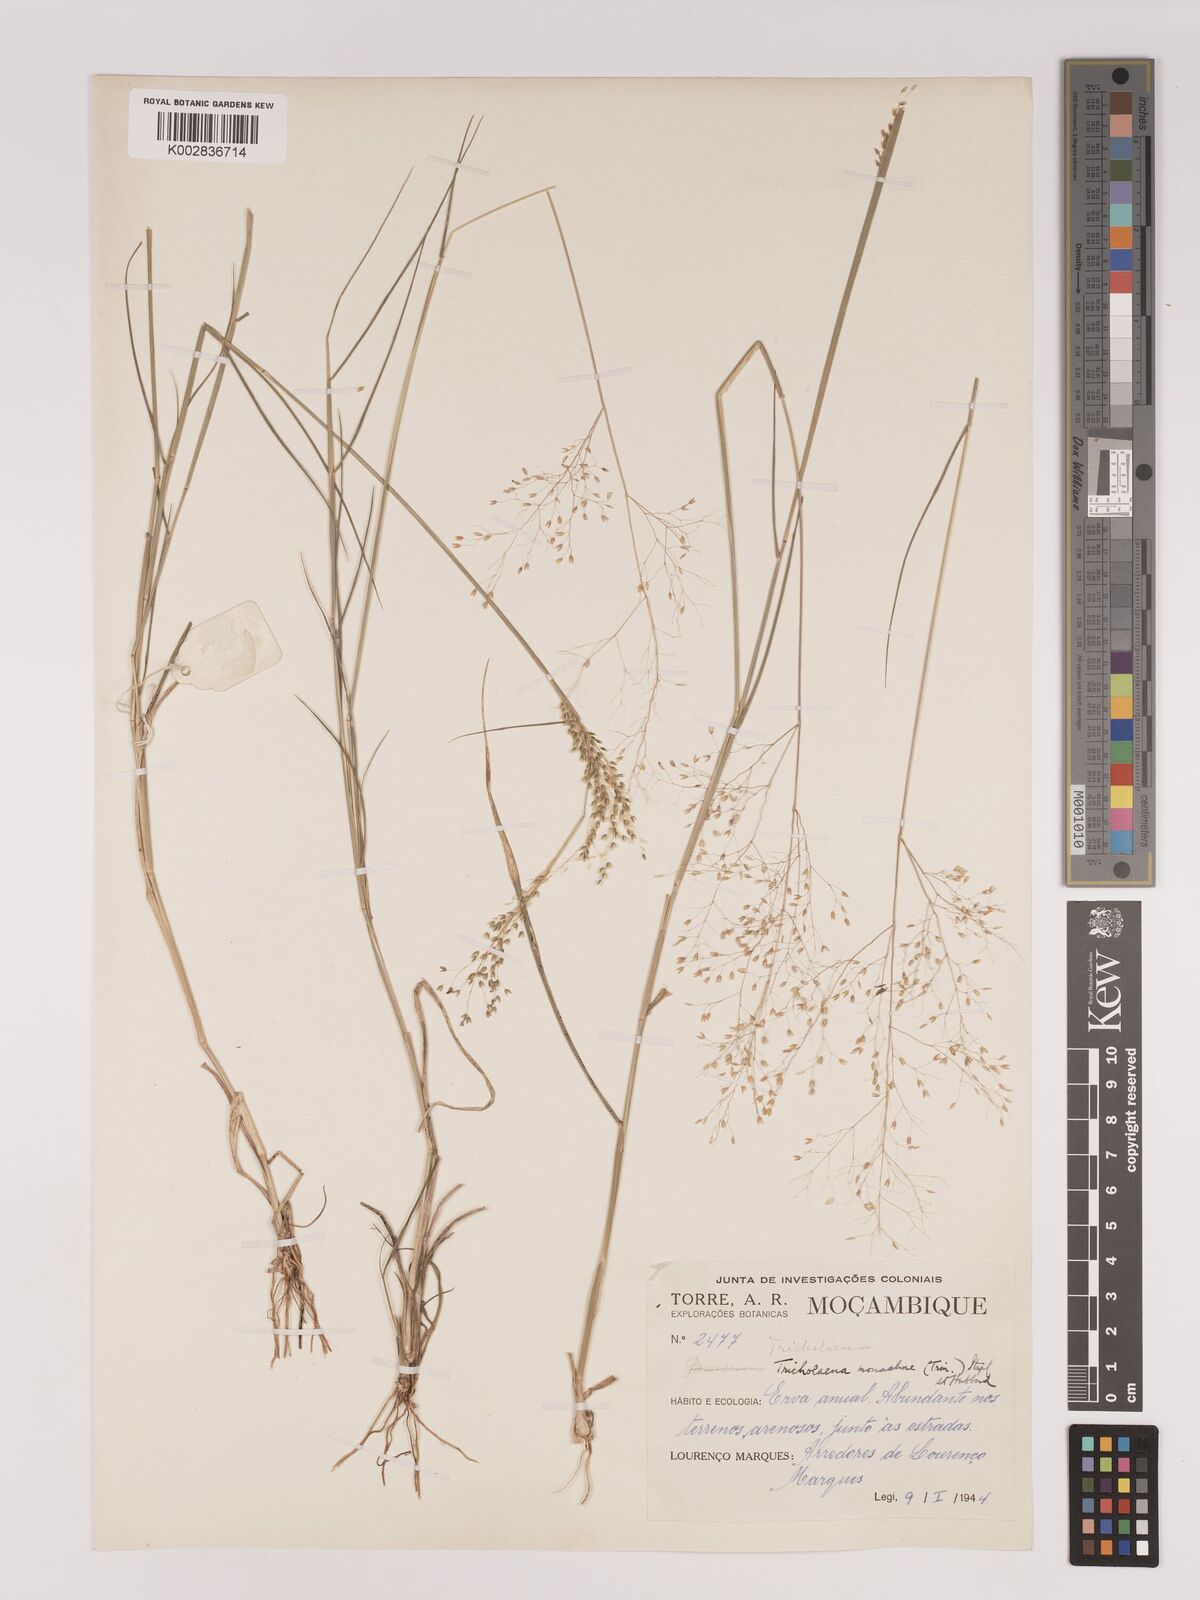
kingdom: Plantae
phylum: Tracheophyta
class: Liliopsida
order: Poales
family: Poaceae
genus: Tricholaena
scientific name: Tricholaena monachne
